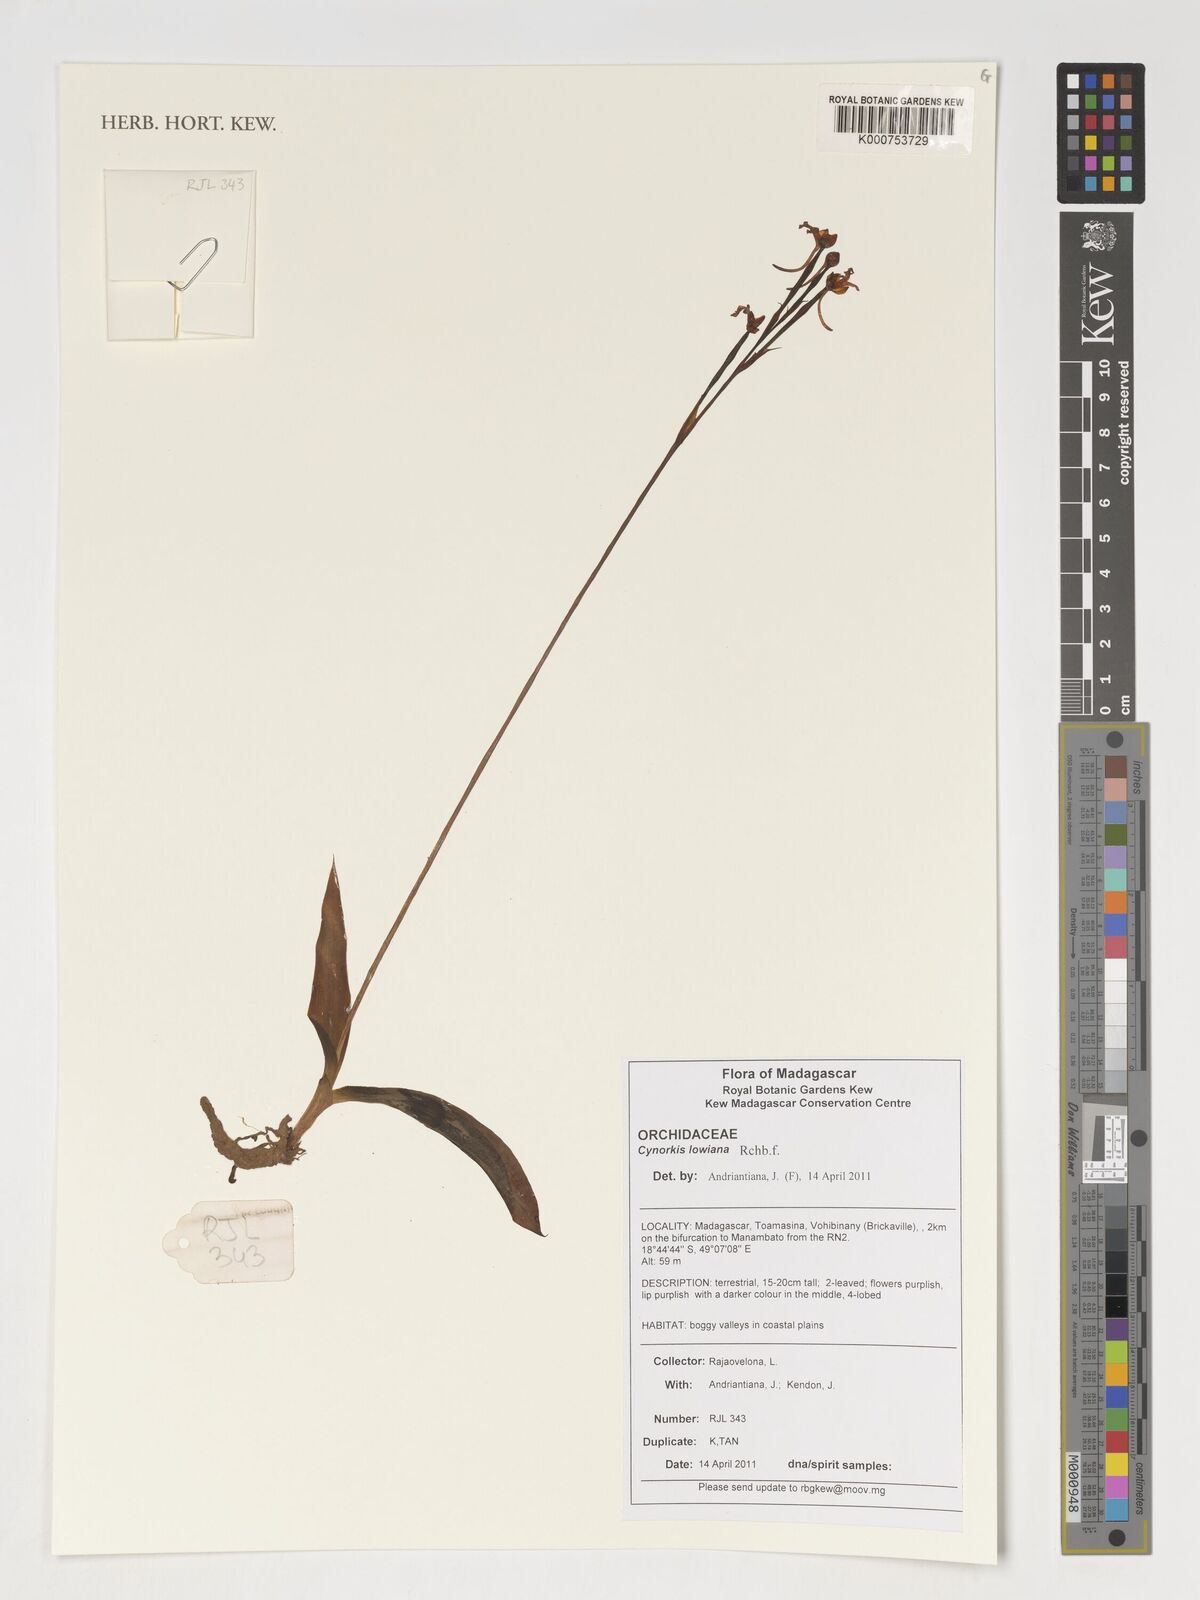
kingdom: Plantae
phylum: Tracheophyta
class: Liliopsida
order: Asparagales
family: Orchidaceae
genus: Cynorkis
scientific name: Cynorkis lowiana
